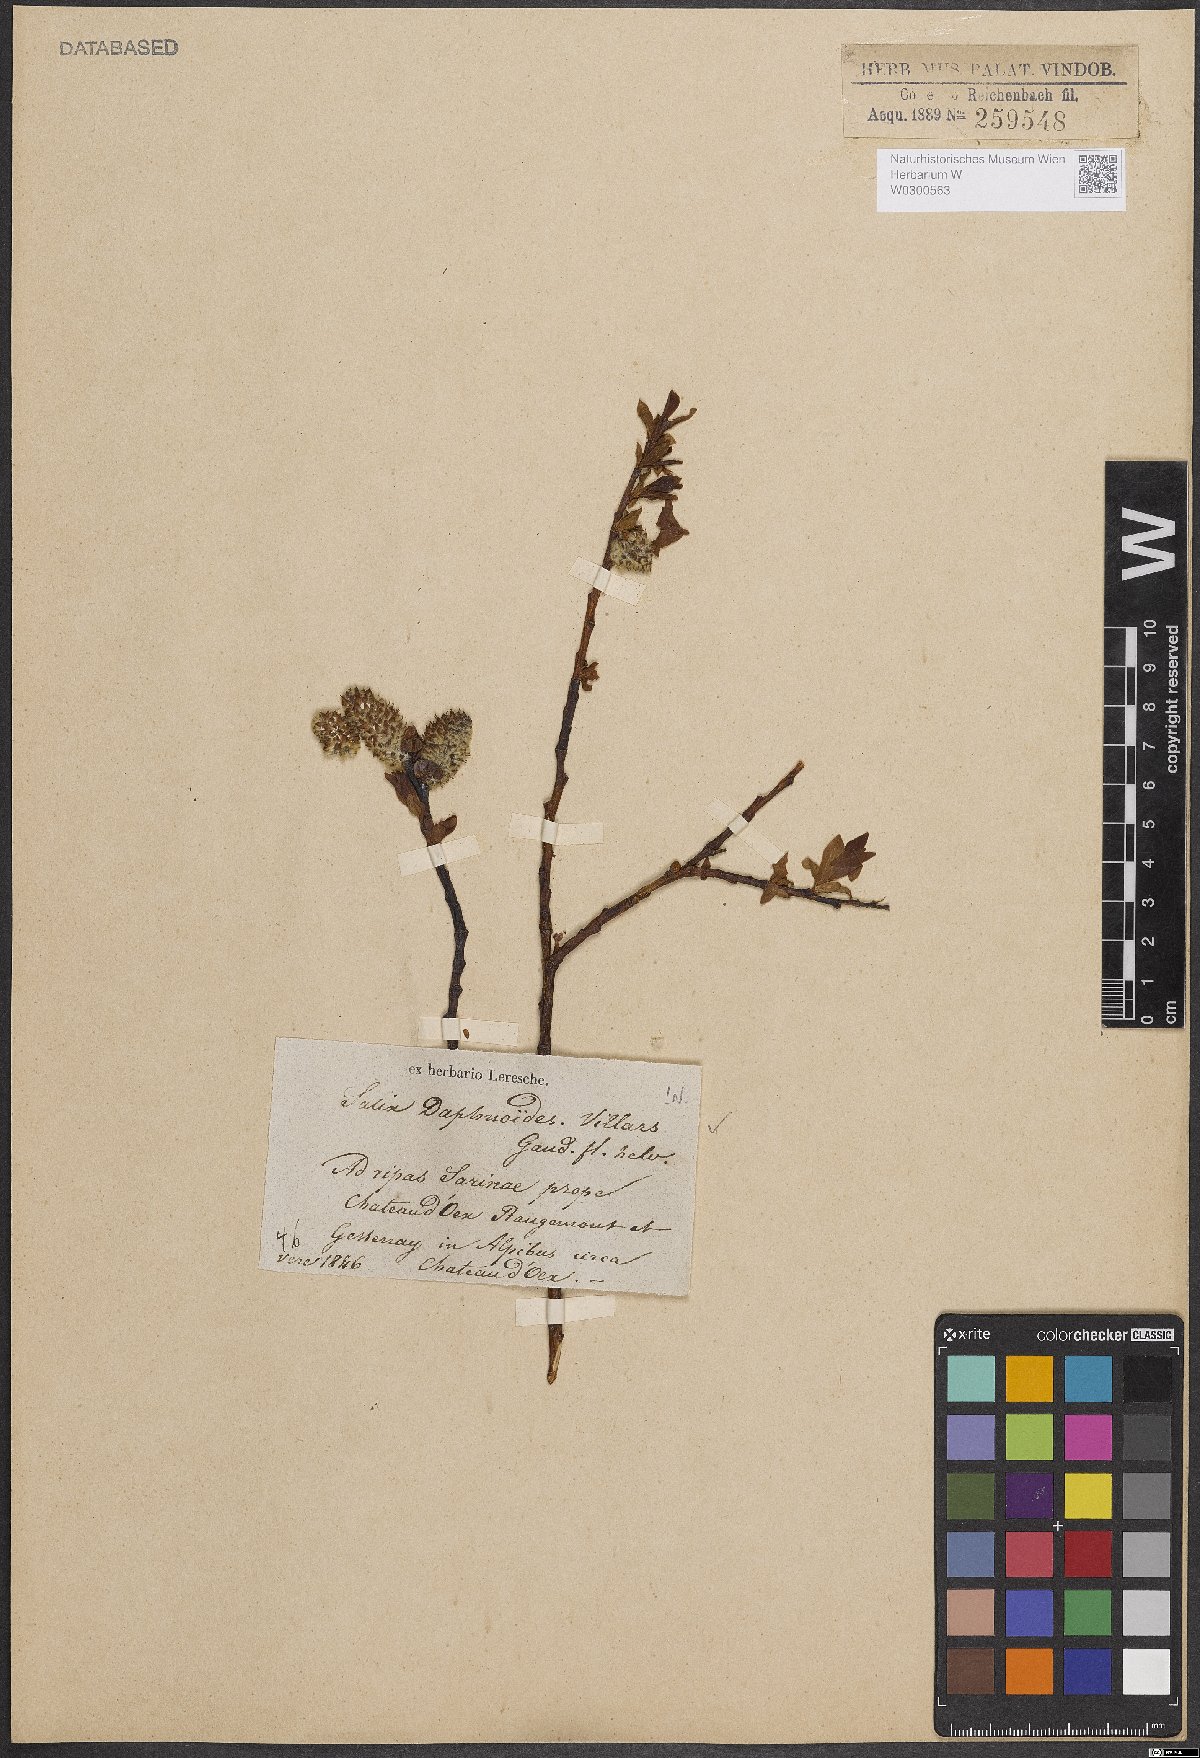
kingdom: Plantae
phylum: Tracheophyta
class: Magnoliopsida
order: Malpighiales
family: Salicaceae
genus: Salix
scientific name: Salix daphnoides
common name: European violet-willow
